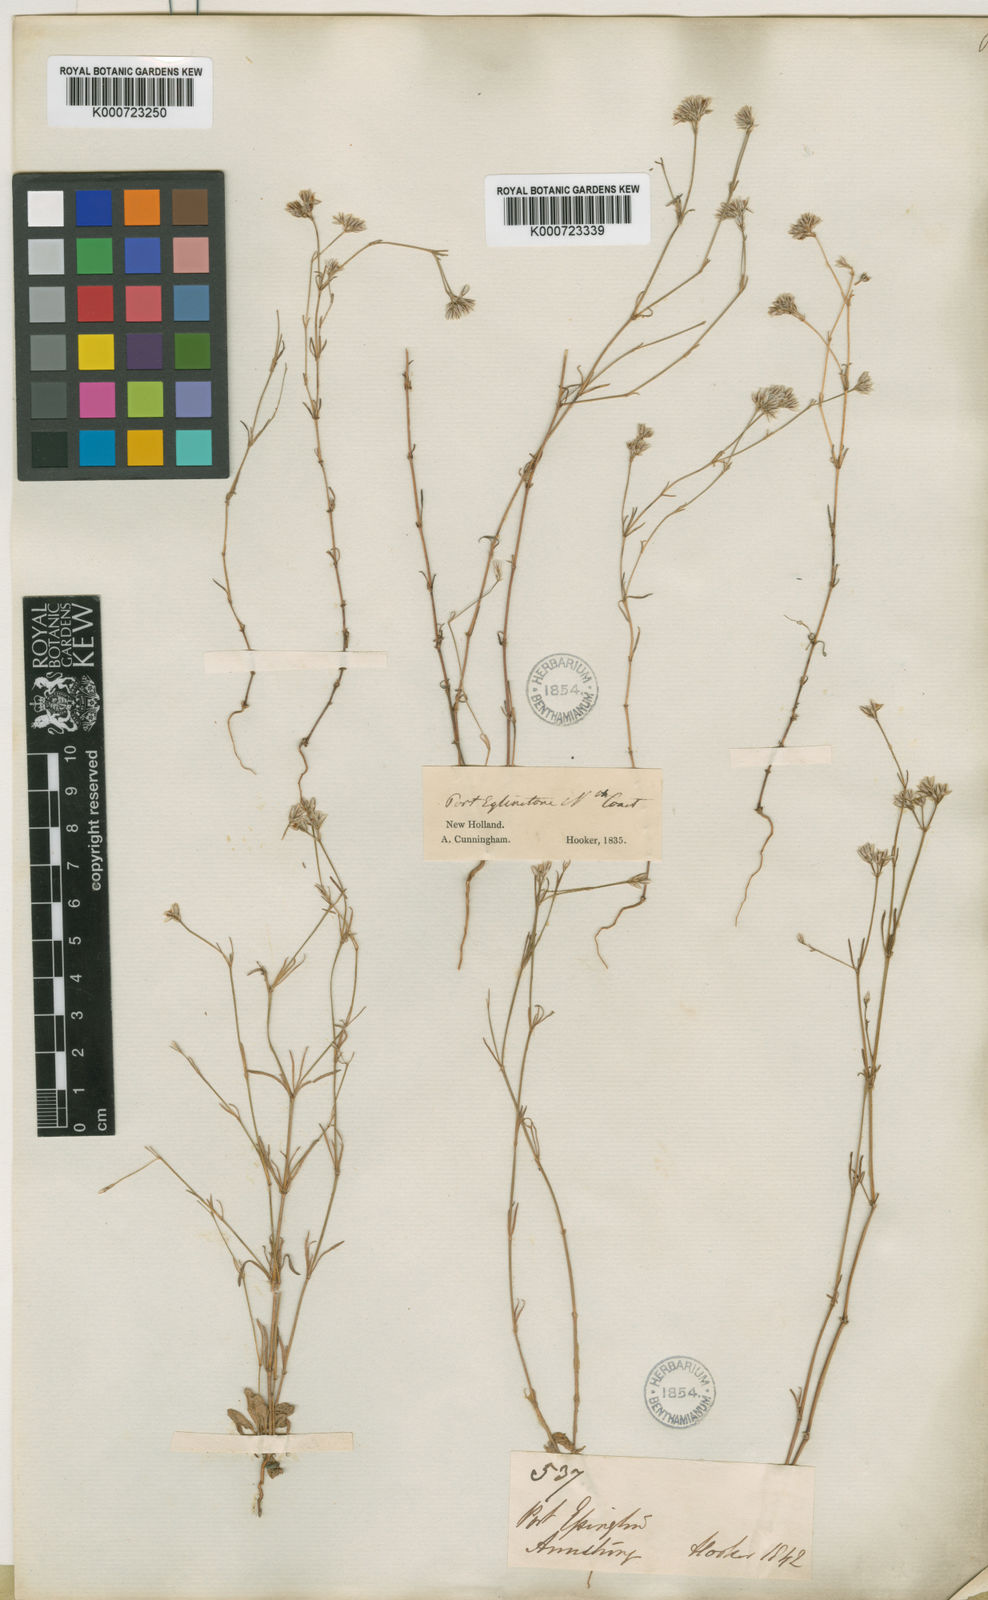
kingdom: Plantae
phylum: Tracheophyta
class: Magnoliopsida
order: Caryophyllales
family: Caryophyllaceae
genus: Polycarpaea
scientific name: Polycarpaea breviflora
